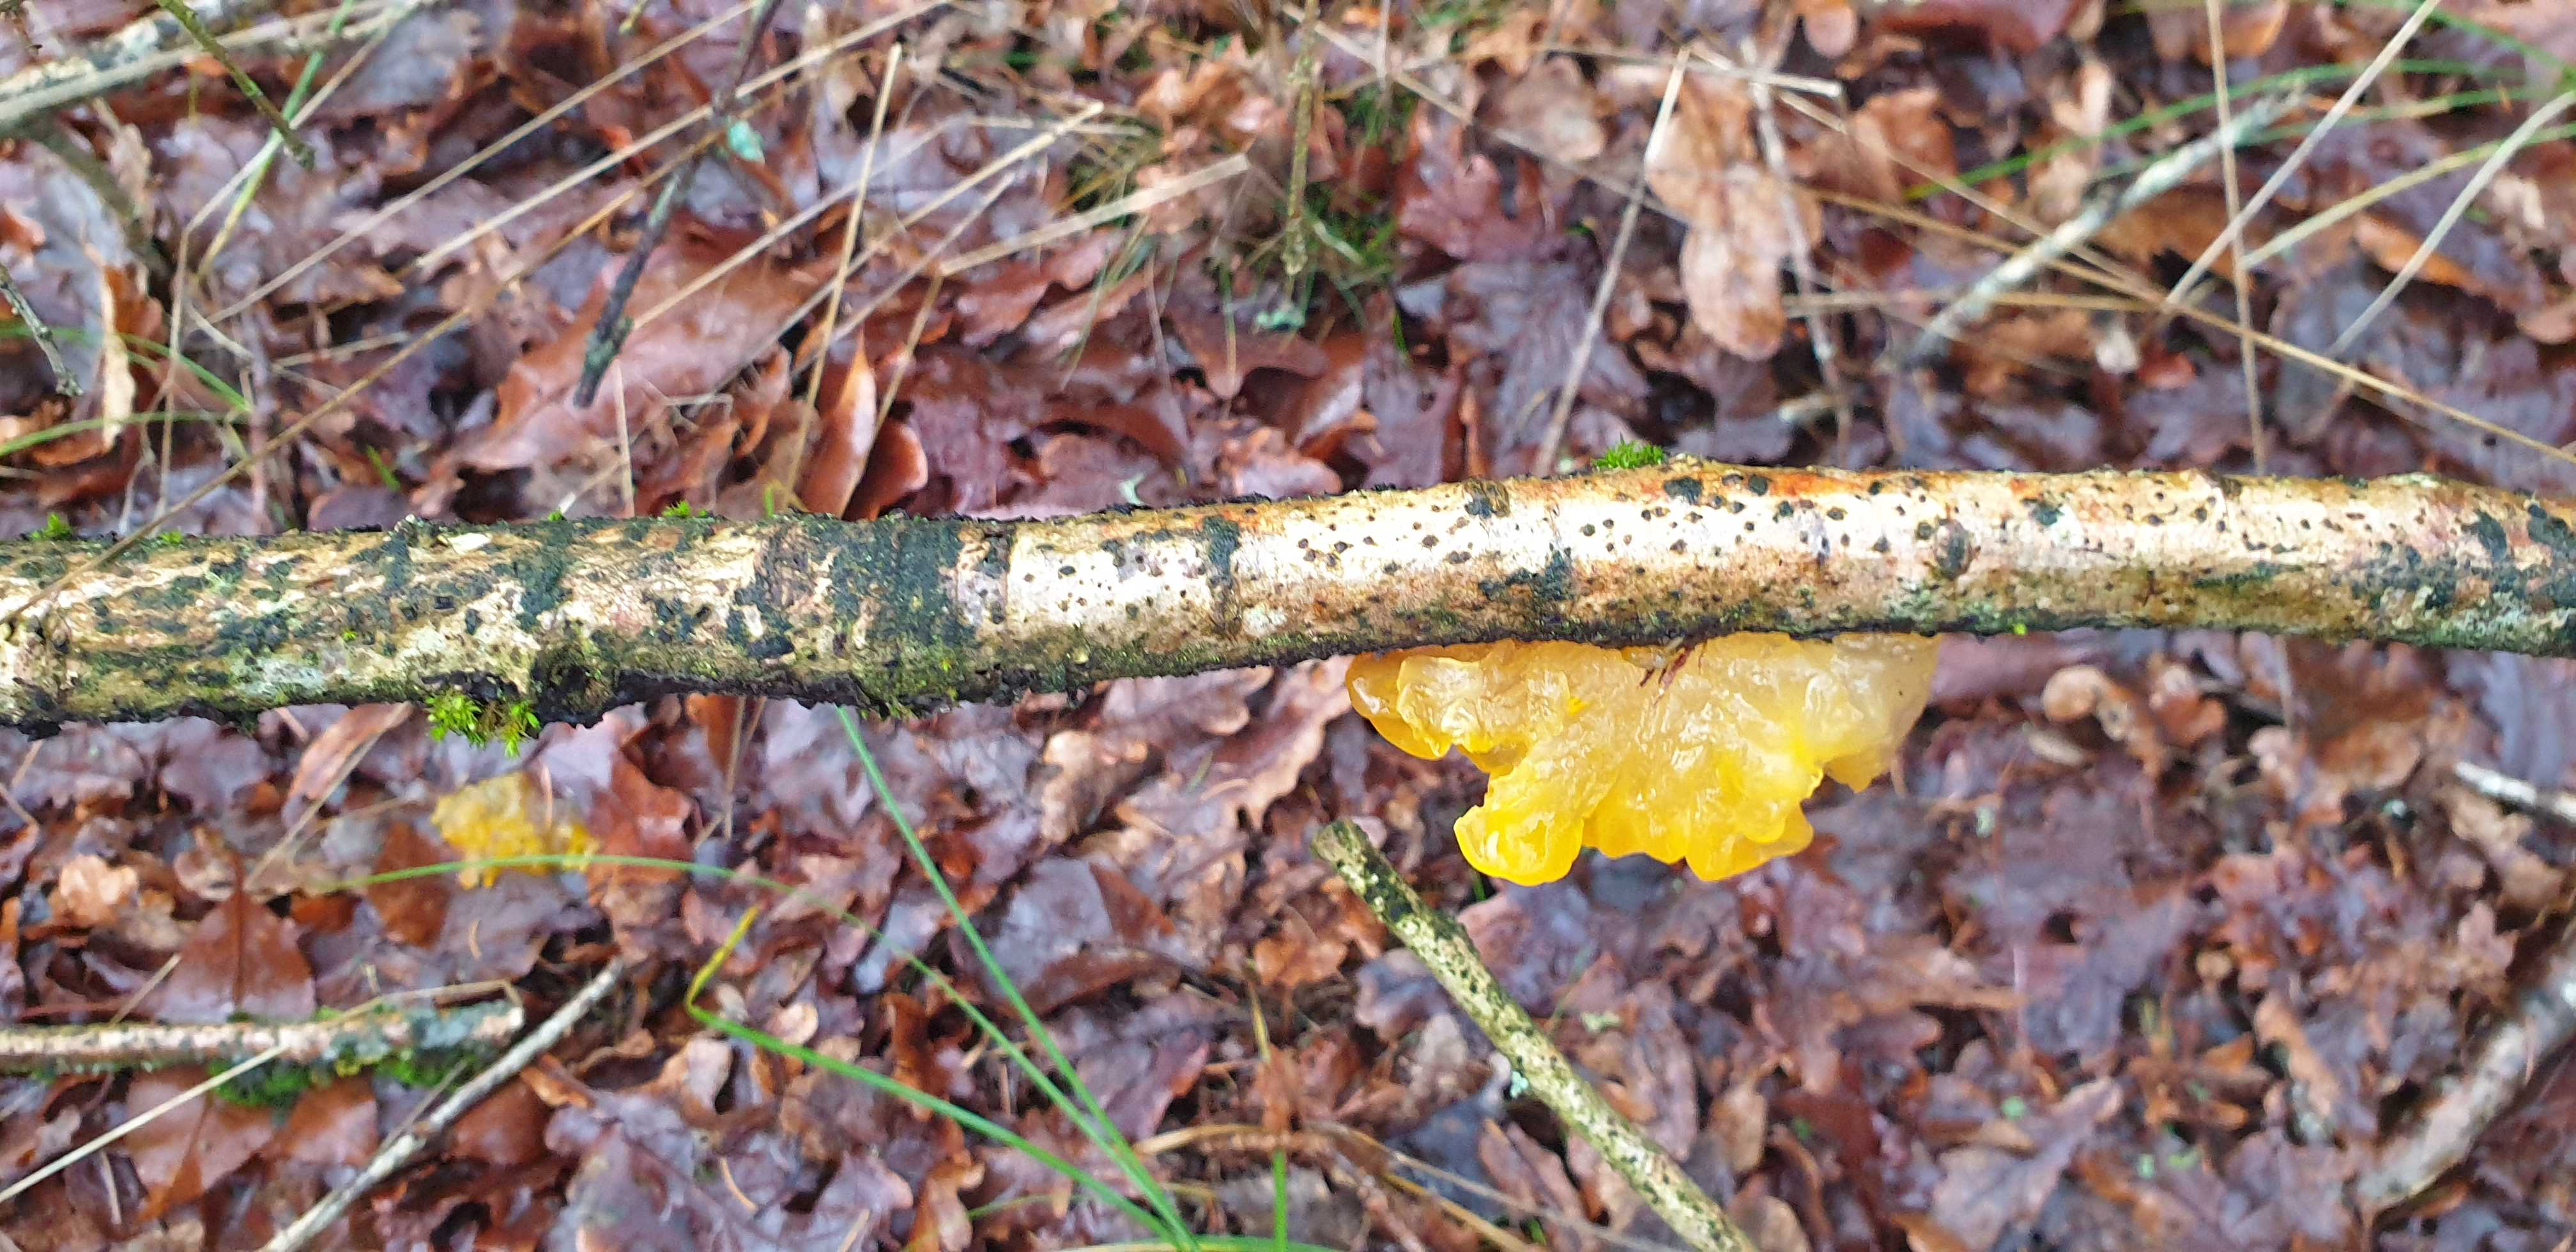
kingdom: Fungi
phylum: Basidiomycota
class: Tremellomycetes
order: Tremellales
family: Tremellaceae
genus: Tremella
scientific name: Tremella mesenterica
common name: gul bævresvamp
